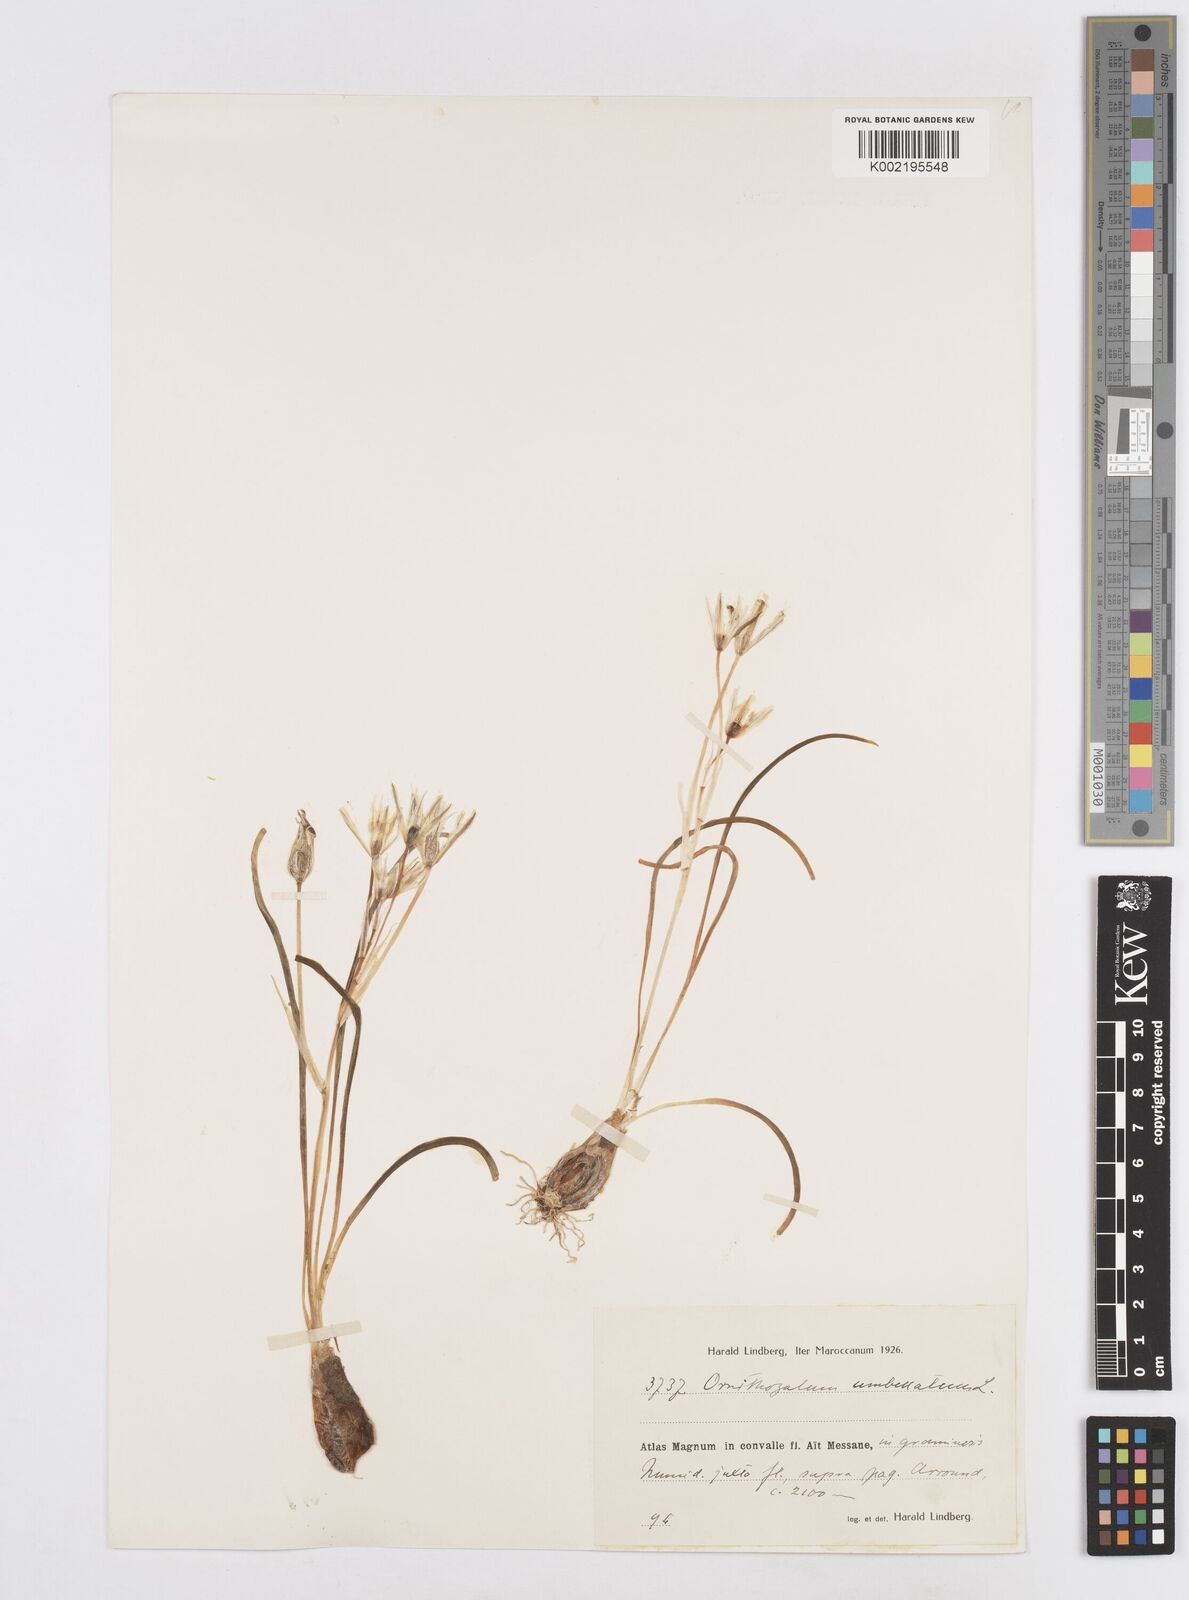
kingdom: Plantae
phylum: Tracheophyta
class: Liliopsida
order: Asparagales
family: Asparagaceae
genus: Ornithogalum
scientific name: Ornithogalum umbellatum
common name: Garden star-of-bethlehem
